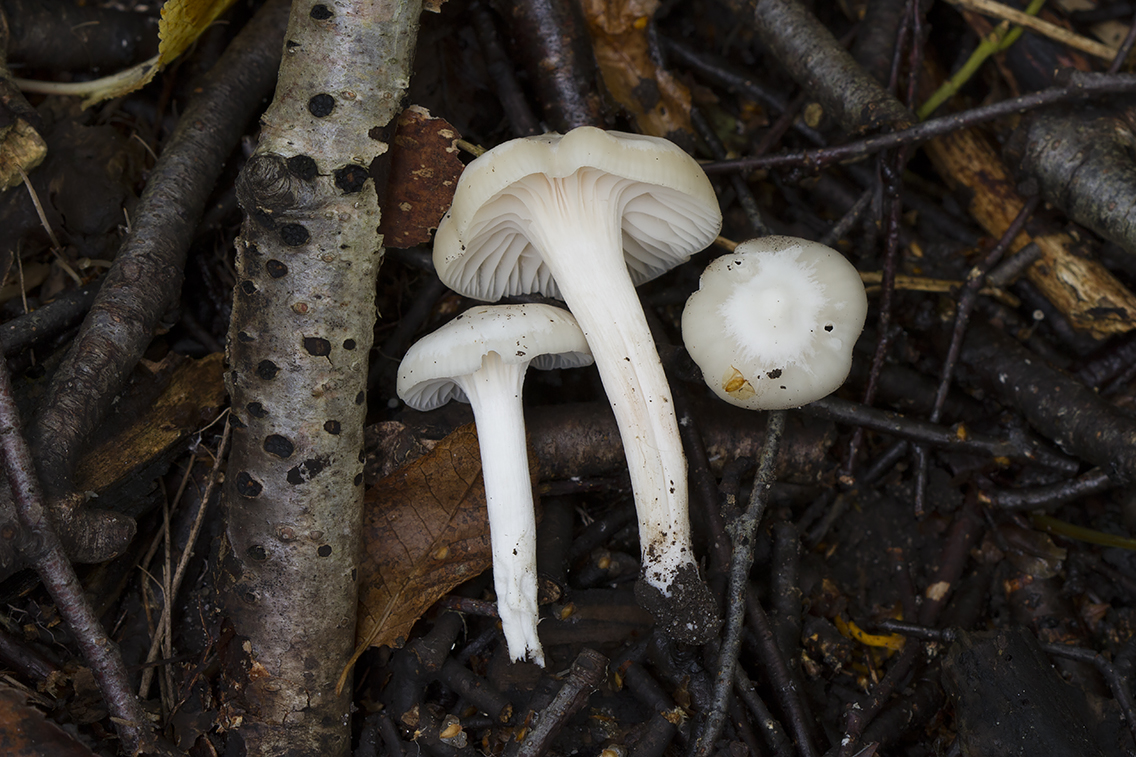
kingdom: Fungi
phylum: Basidiomycota
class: Agaricomycetes
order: Agaricales
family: Hygrophoraceae
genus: Cuphophyllus
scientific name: Cuphophyllus
